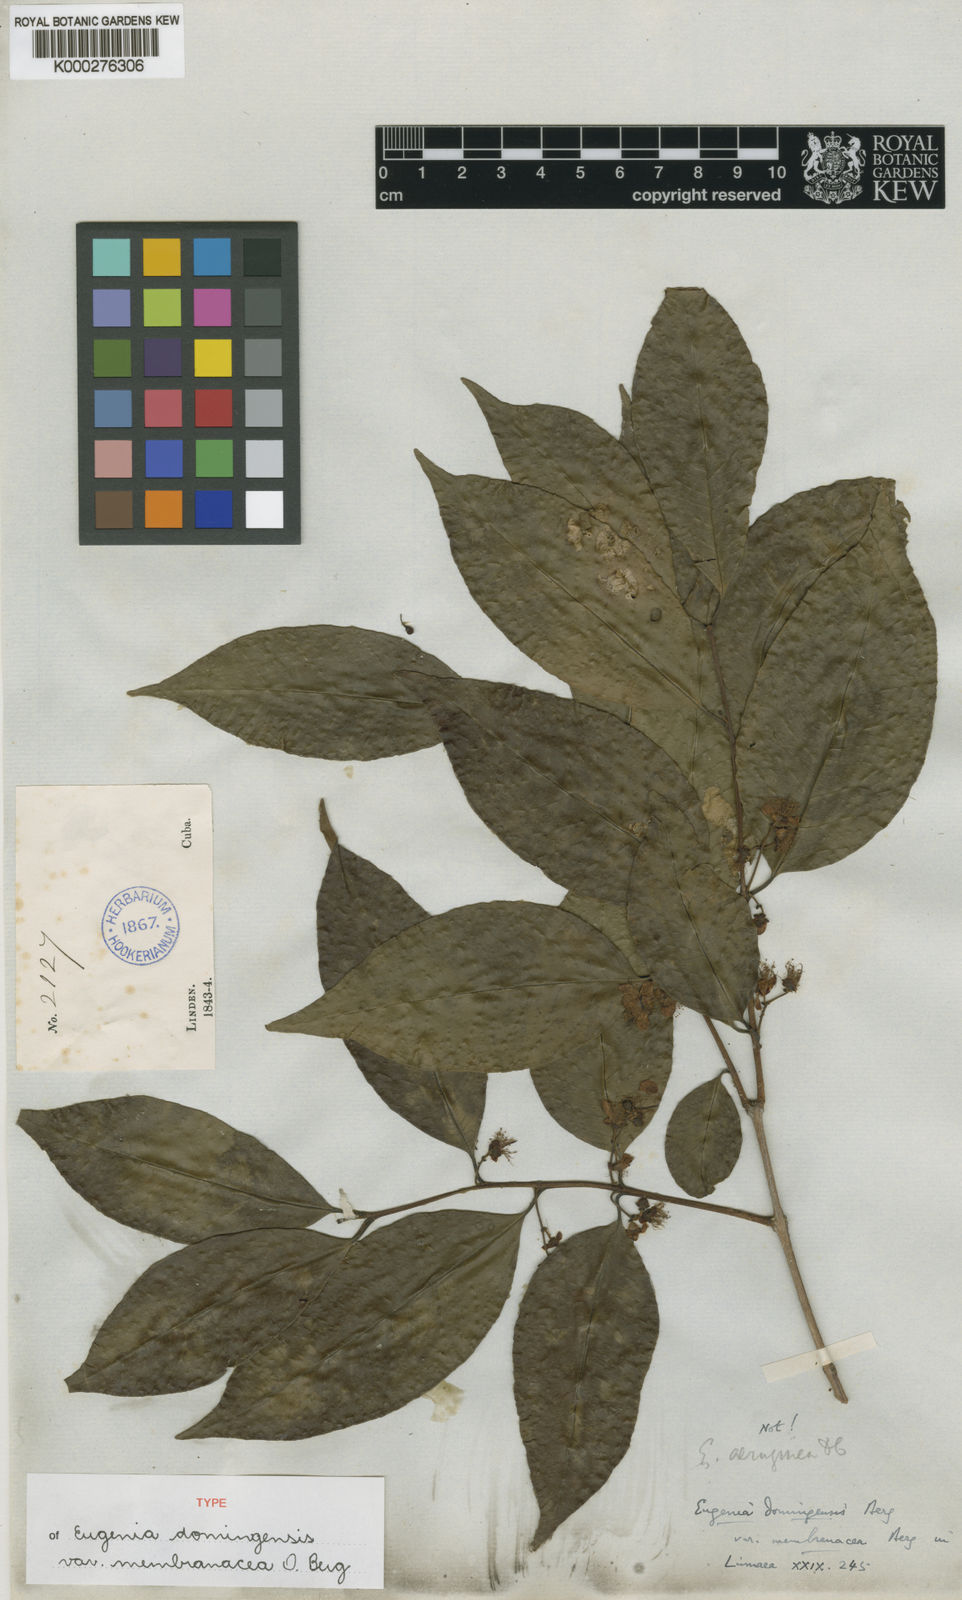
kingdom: Plantae
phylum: Tracheophyta
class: Magnoliopsida
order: Myrtales
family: Myrtaceae
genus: Eugenia
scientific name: Eugenia domingensis
